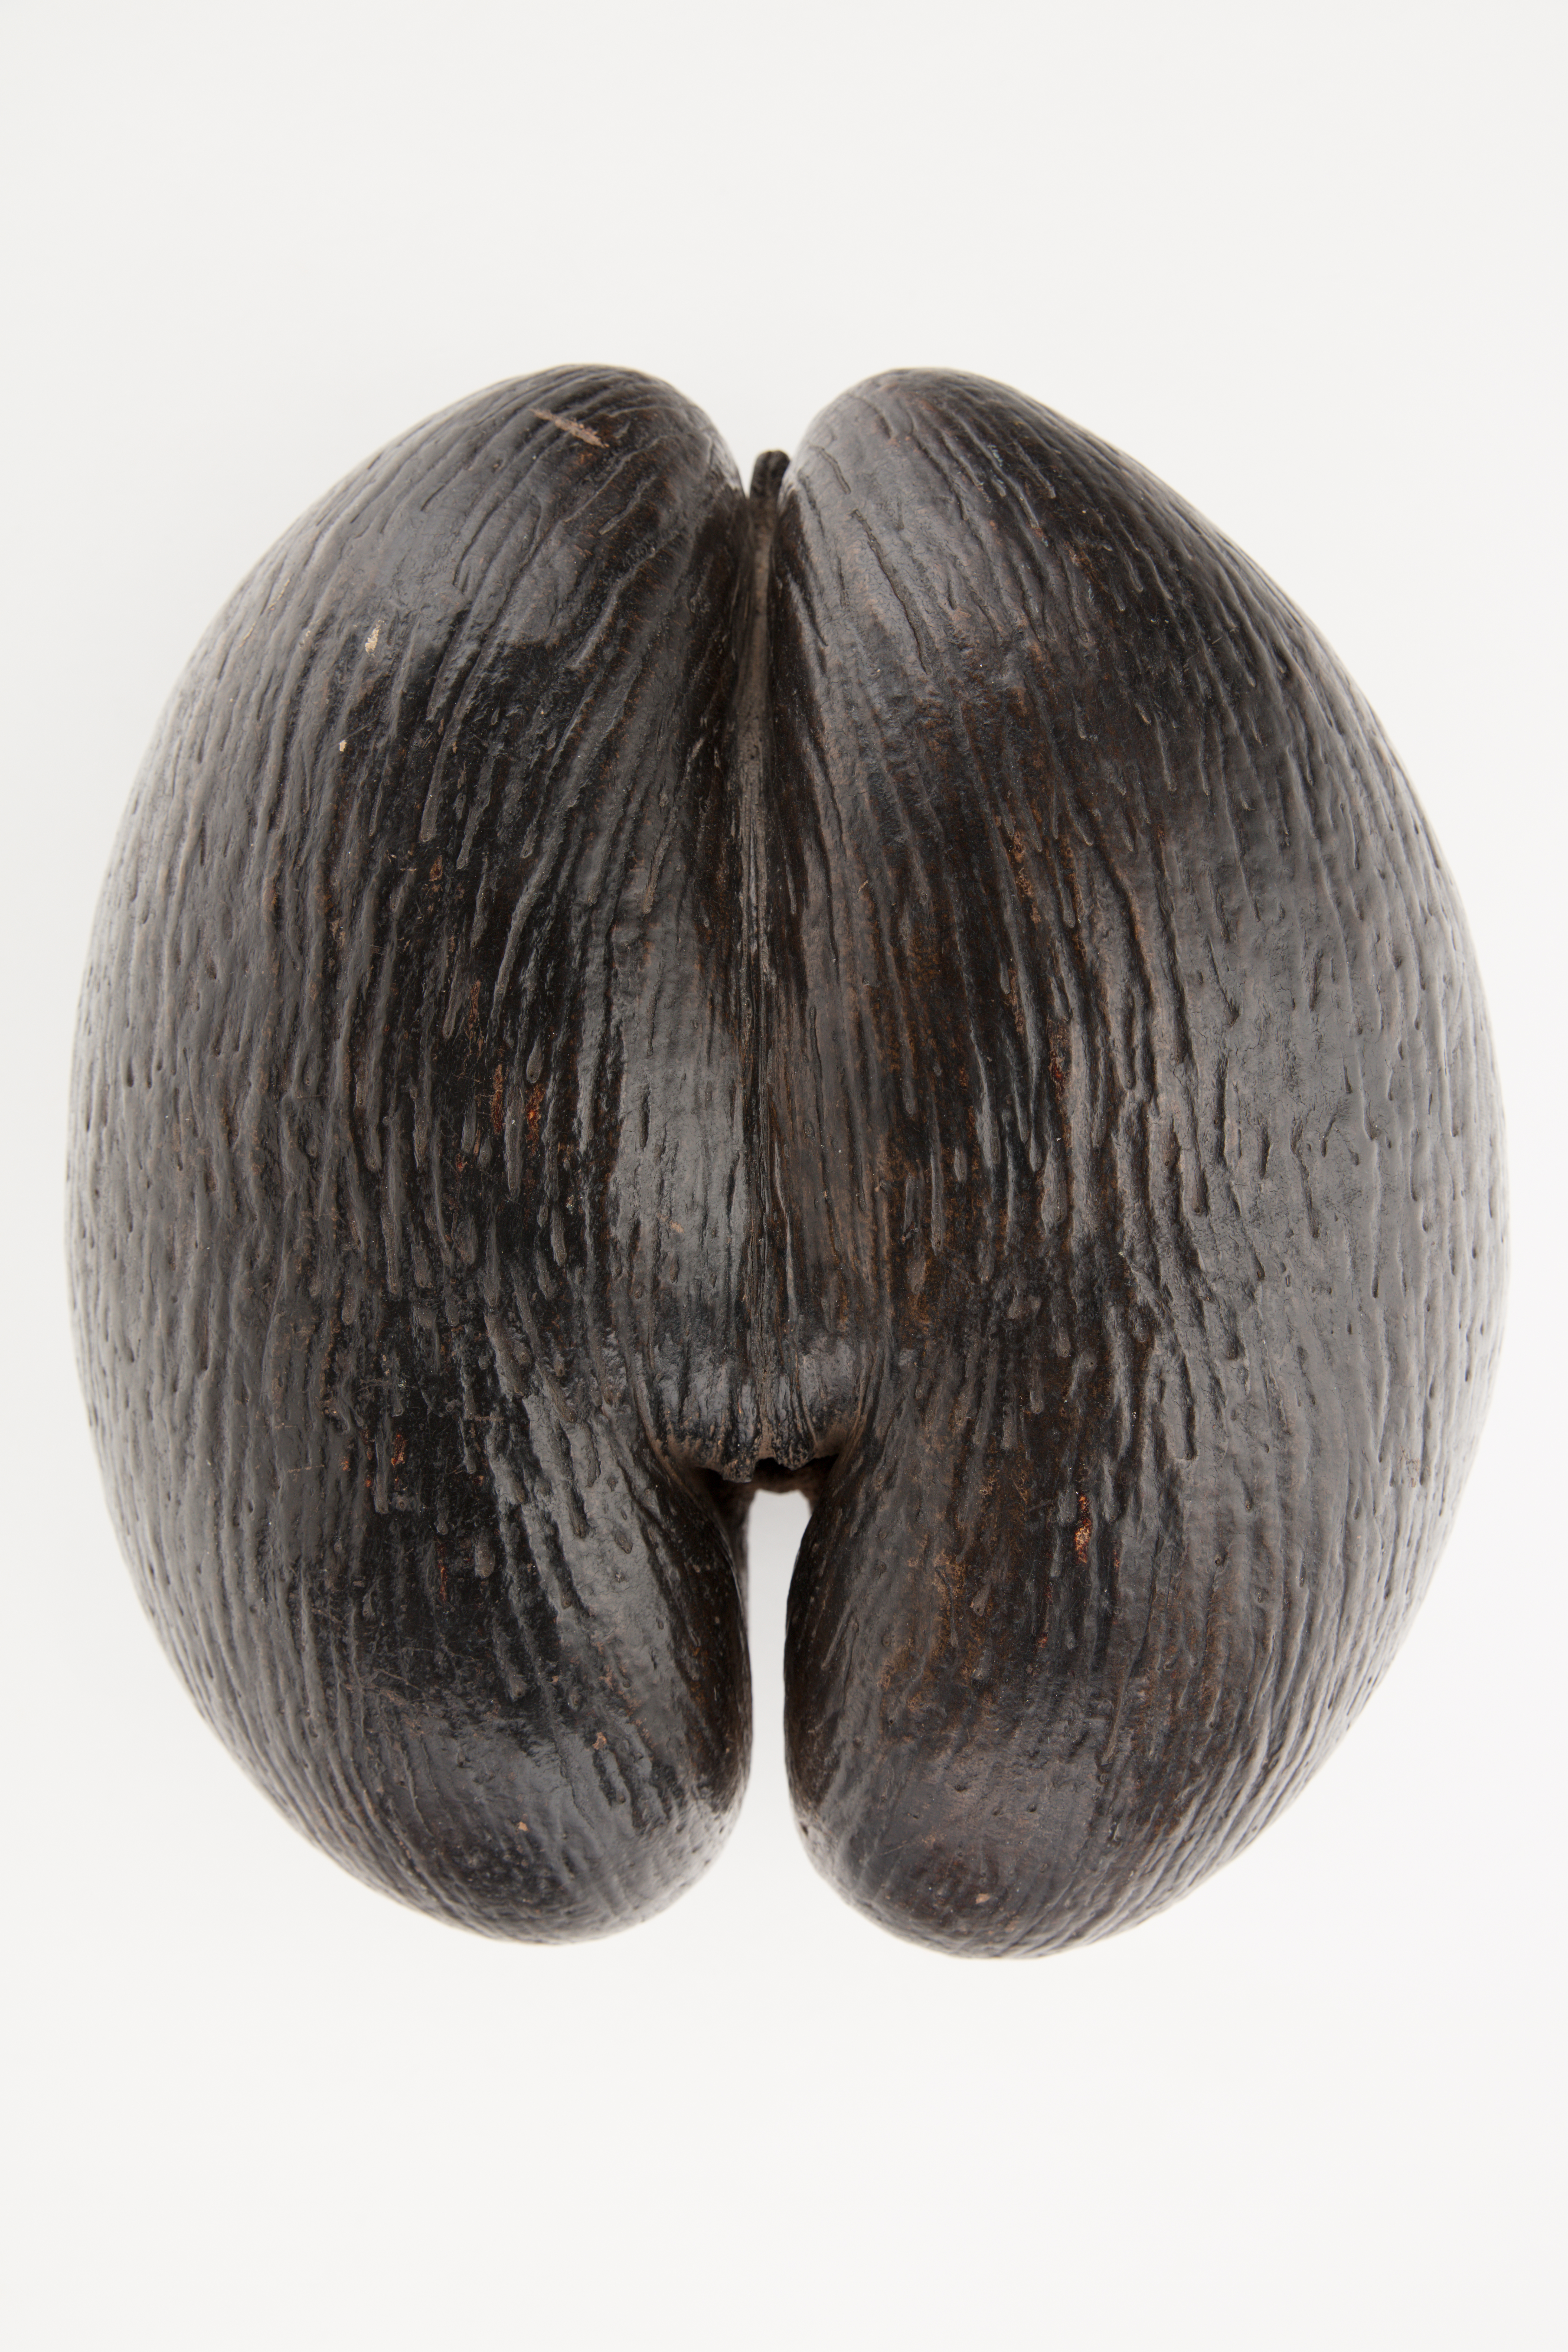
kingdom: Plantae
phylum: Tracheophyta
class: Liliopsida
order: Arecales
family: Arecaceae
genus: Lodoicea
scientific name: Lodoicea maldivica
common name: Double coconut palm
